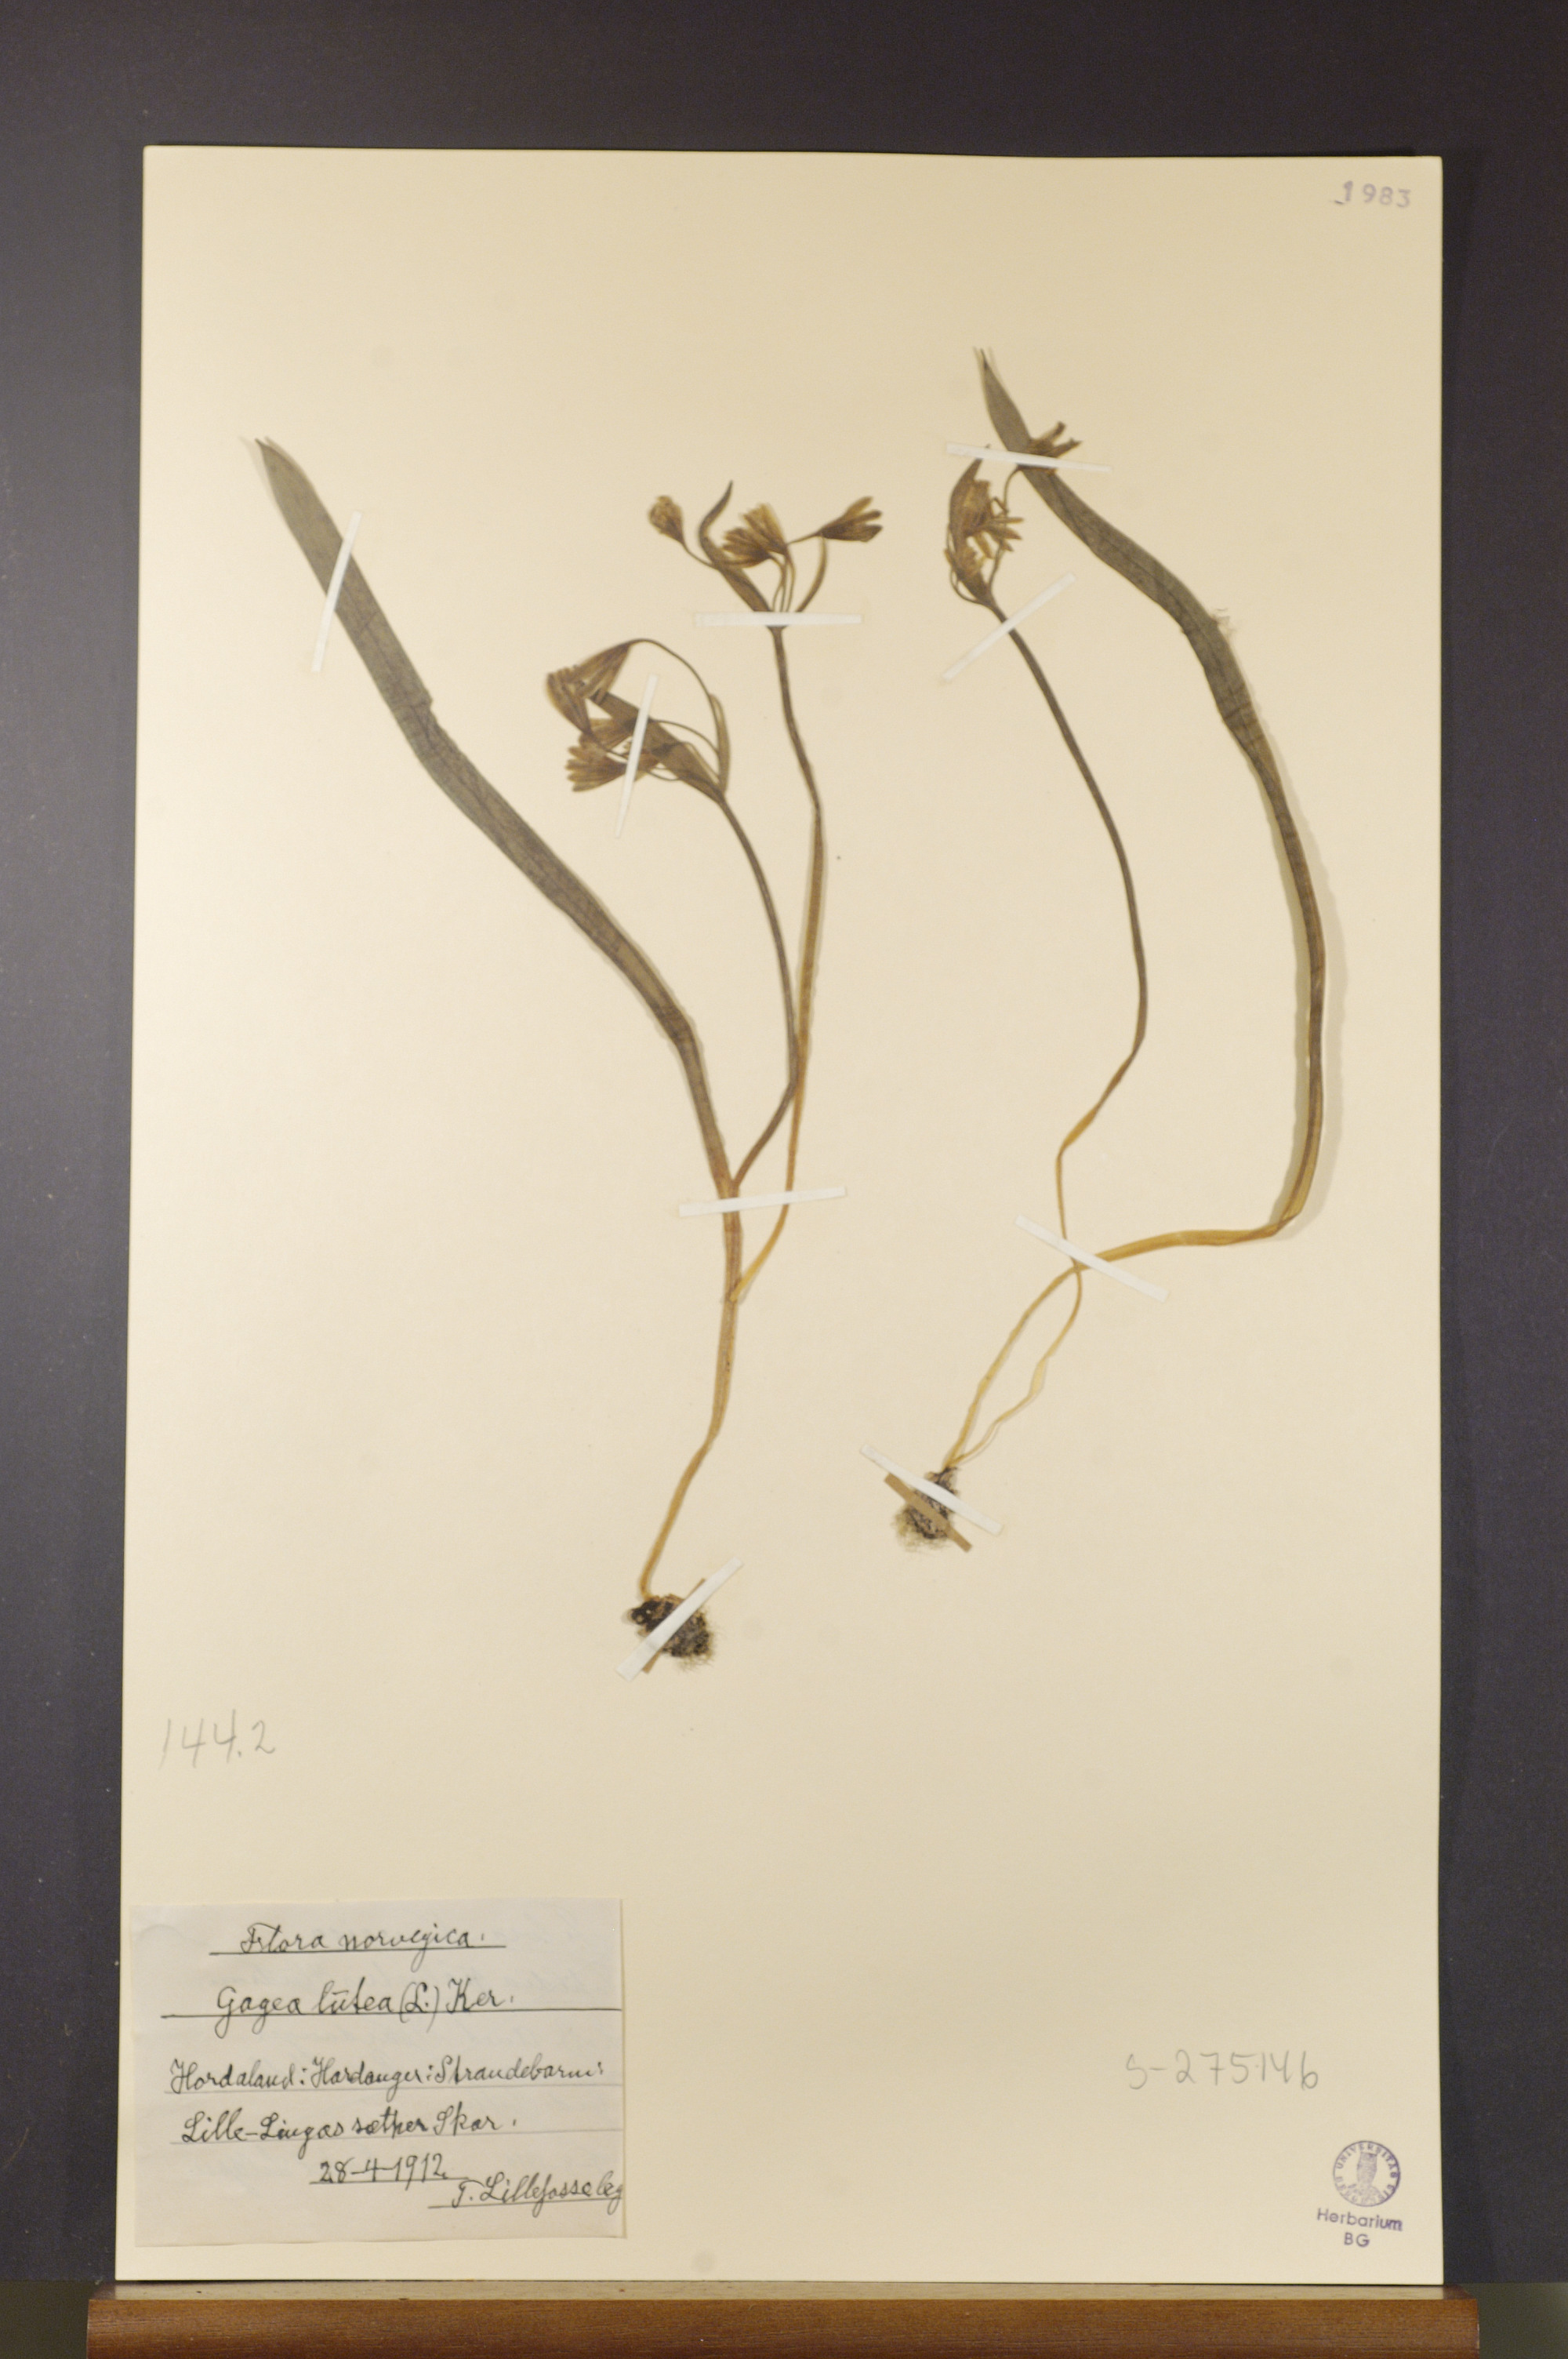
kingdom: Plantae
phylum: Tracheophyta
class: Liliopsida
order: Liliales
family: Liliaceae
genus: Gagea
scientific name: Gagea lutea
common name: Yellow star-of-bethlehem
